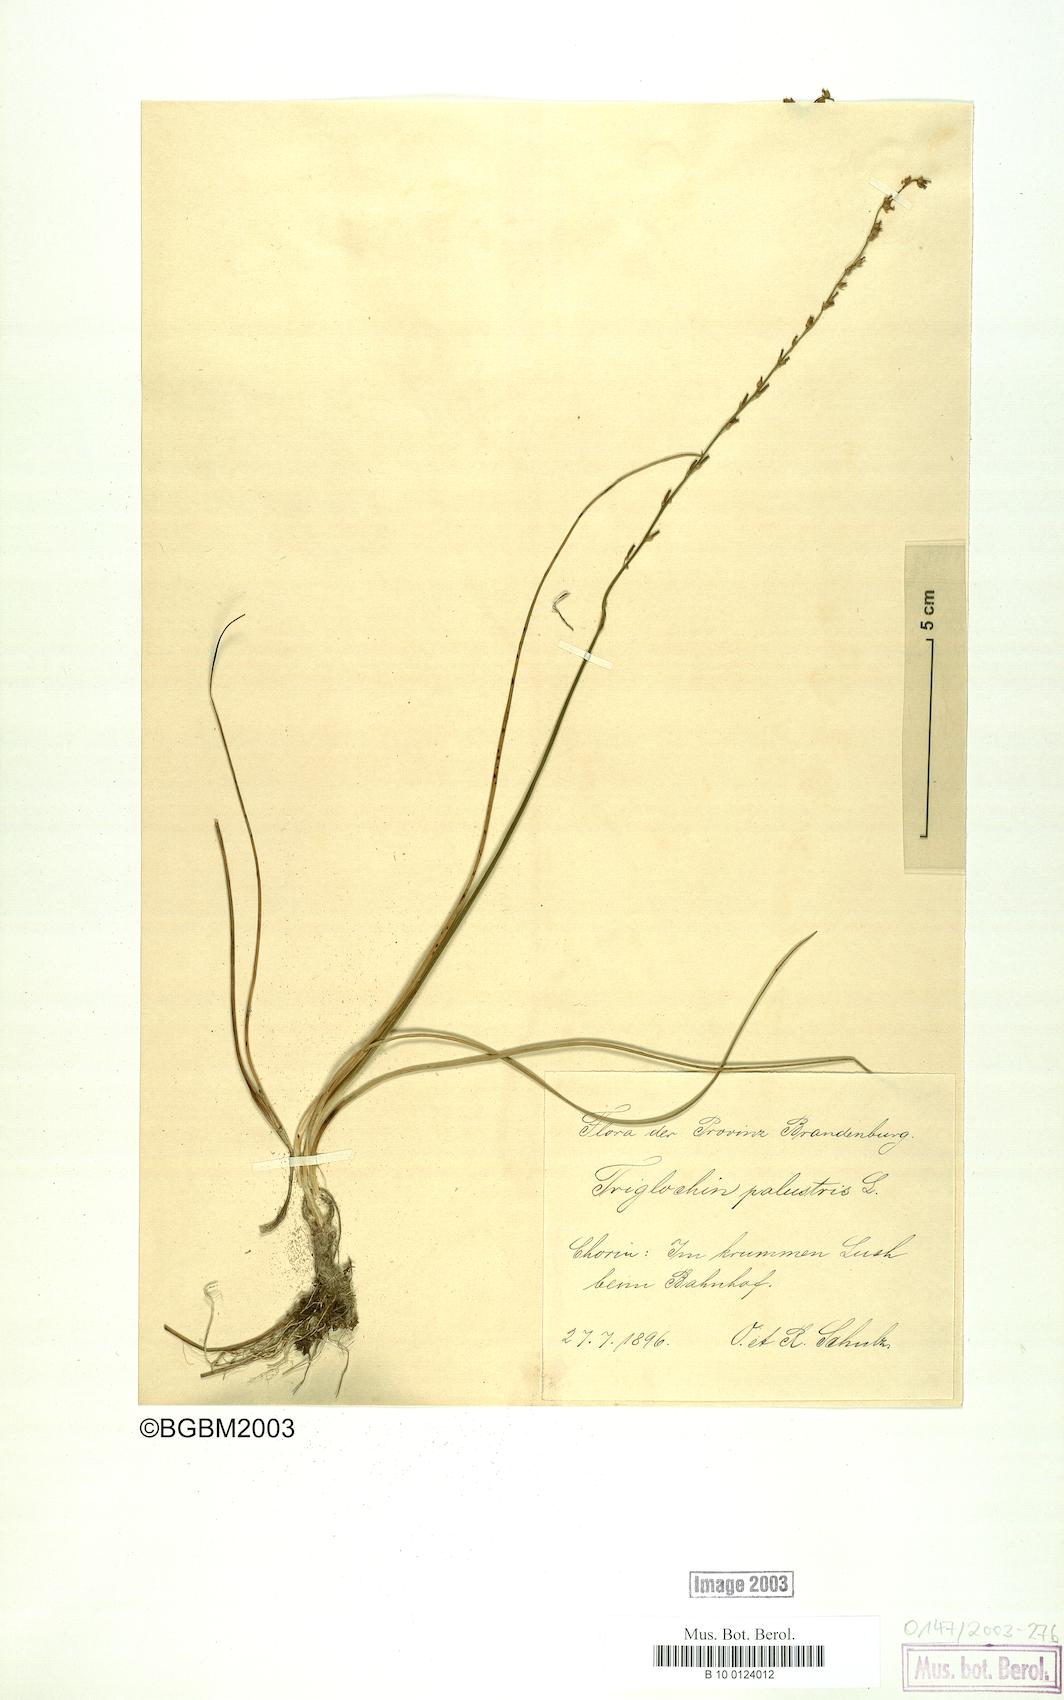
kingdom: Plantae
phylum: Tracheophyta
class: Liliopsida
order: Alismatales
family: Juncaginaceae
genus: Triglochin
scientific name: Triglochin palustris
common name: Marsh arrowgrass
